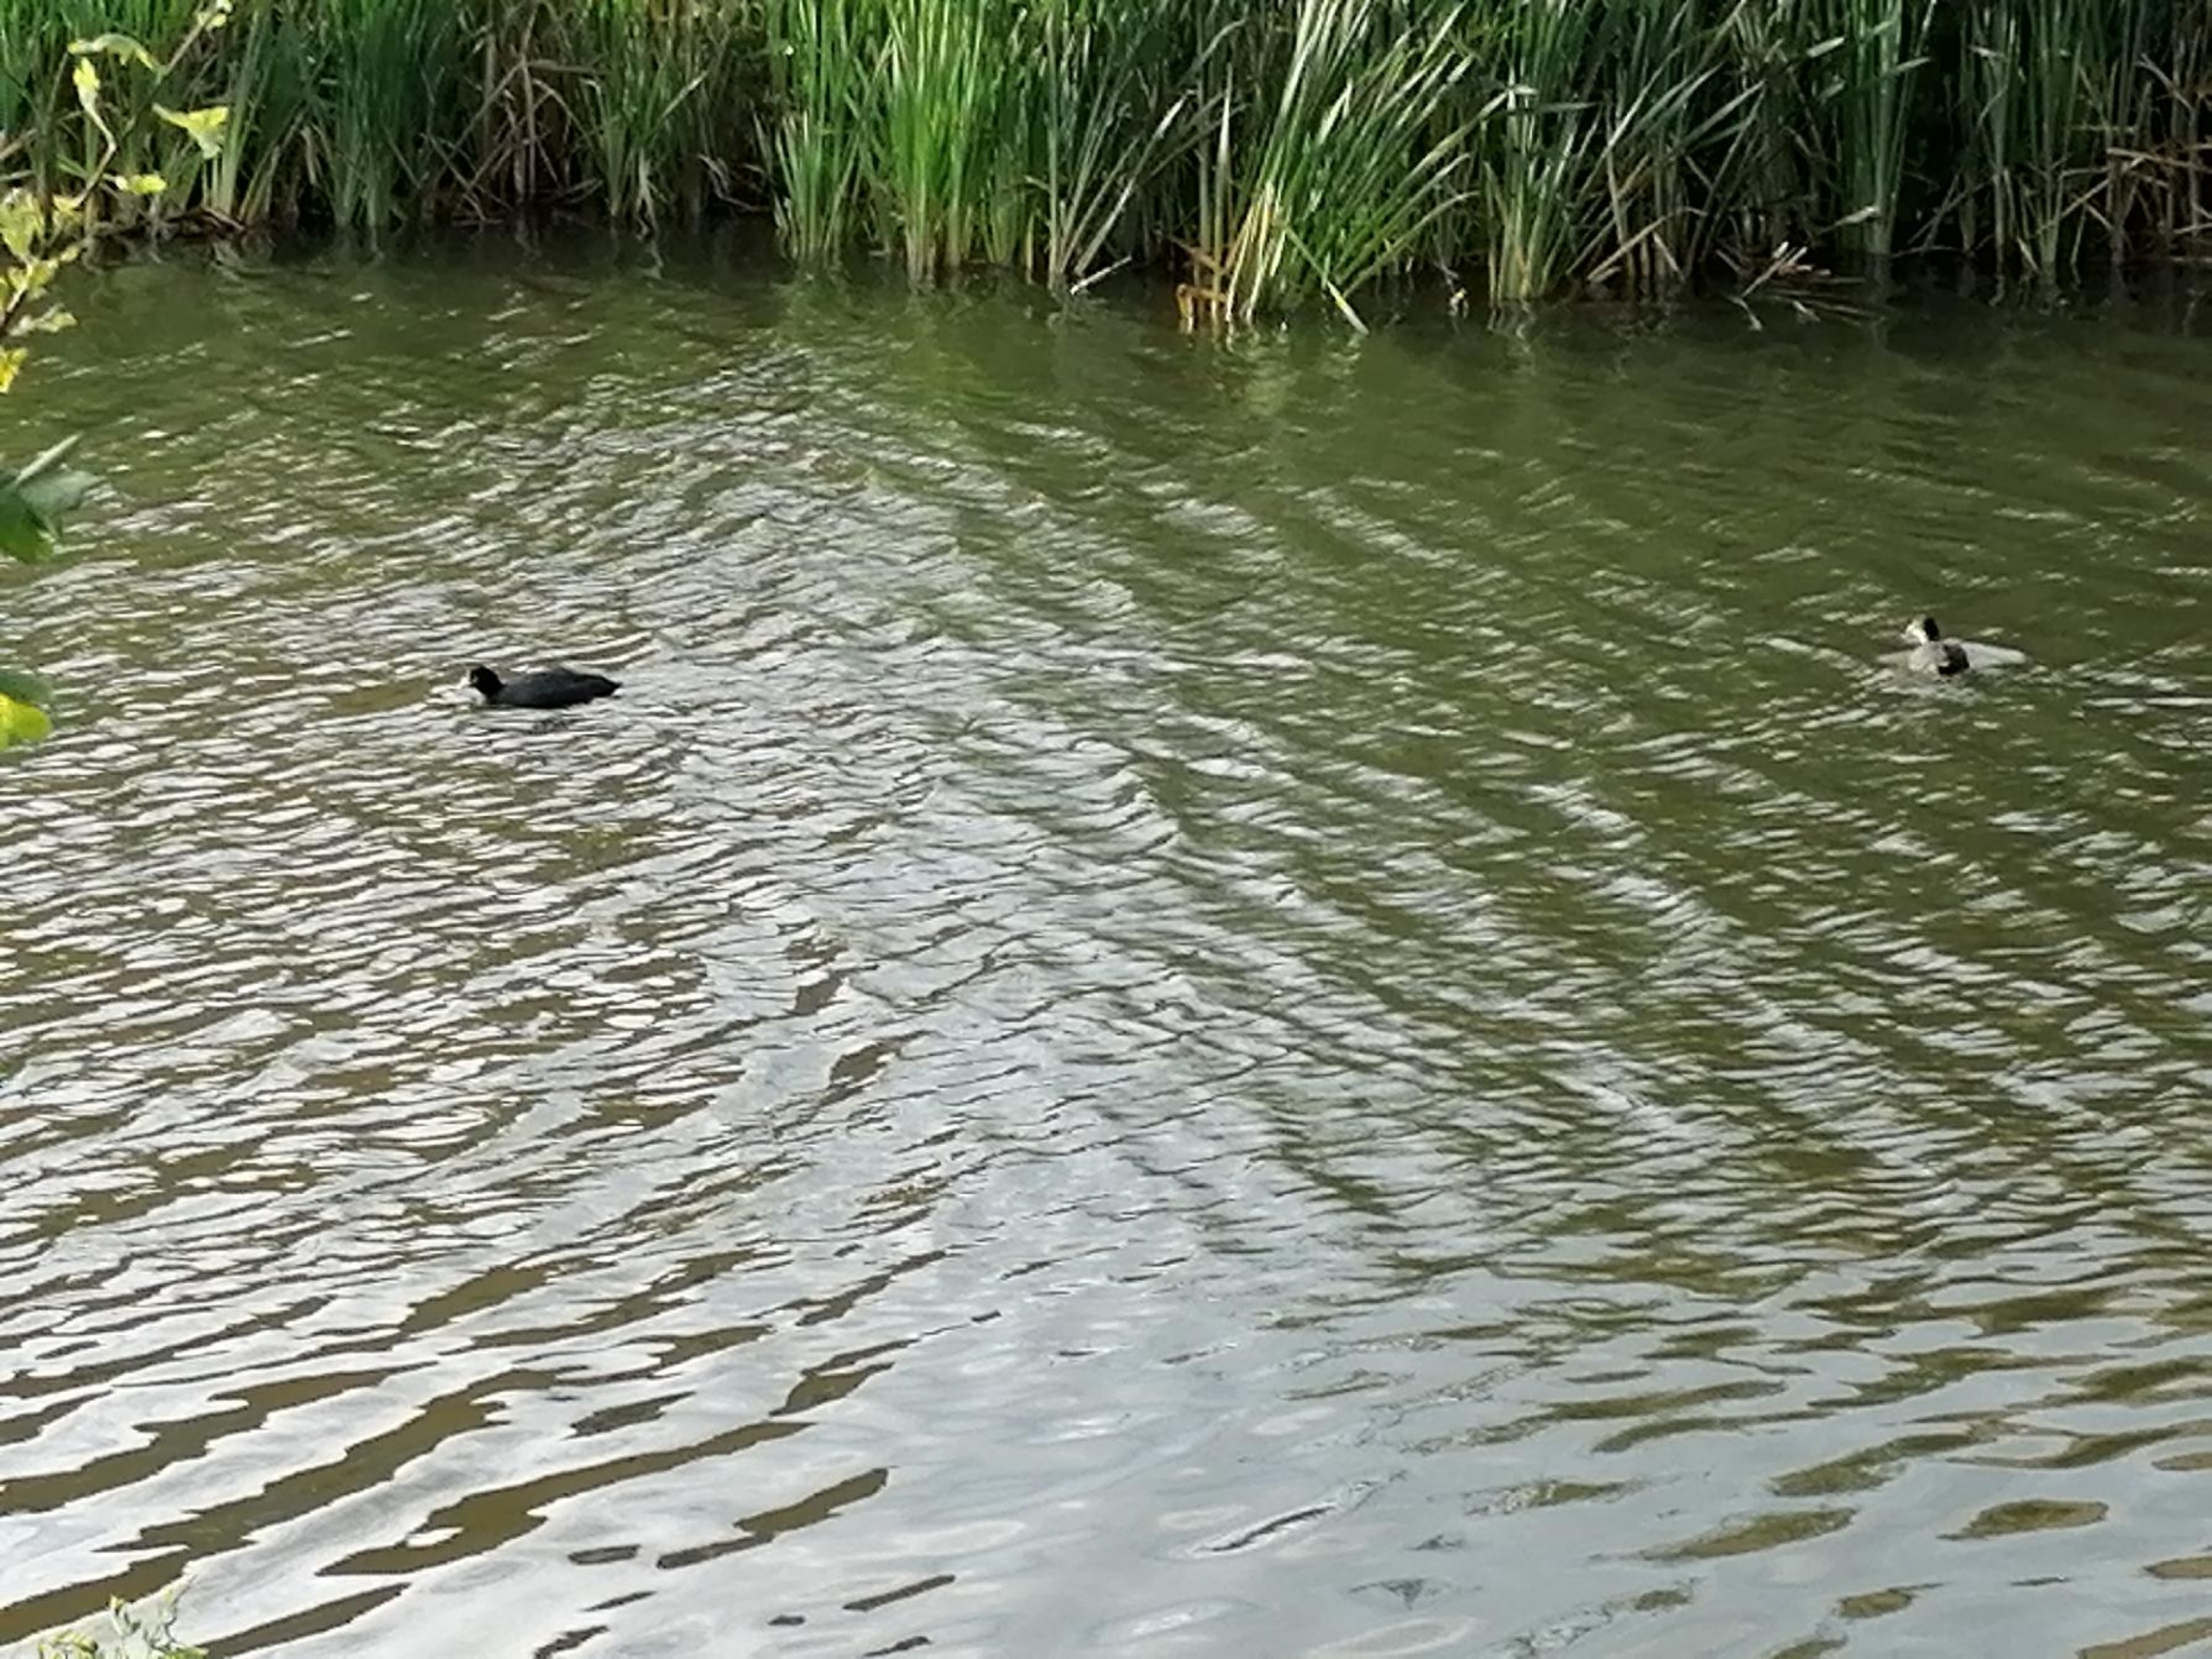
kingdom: Animalia
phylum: Chordata
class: Aves
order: Gruiformes
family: Rallidae
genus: Fulica
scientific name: Fulica atra
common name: Blishøne
